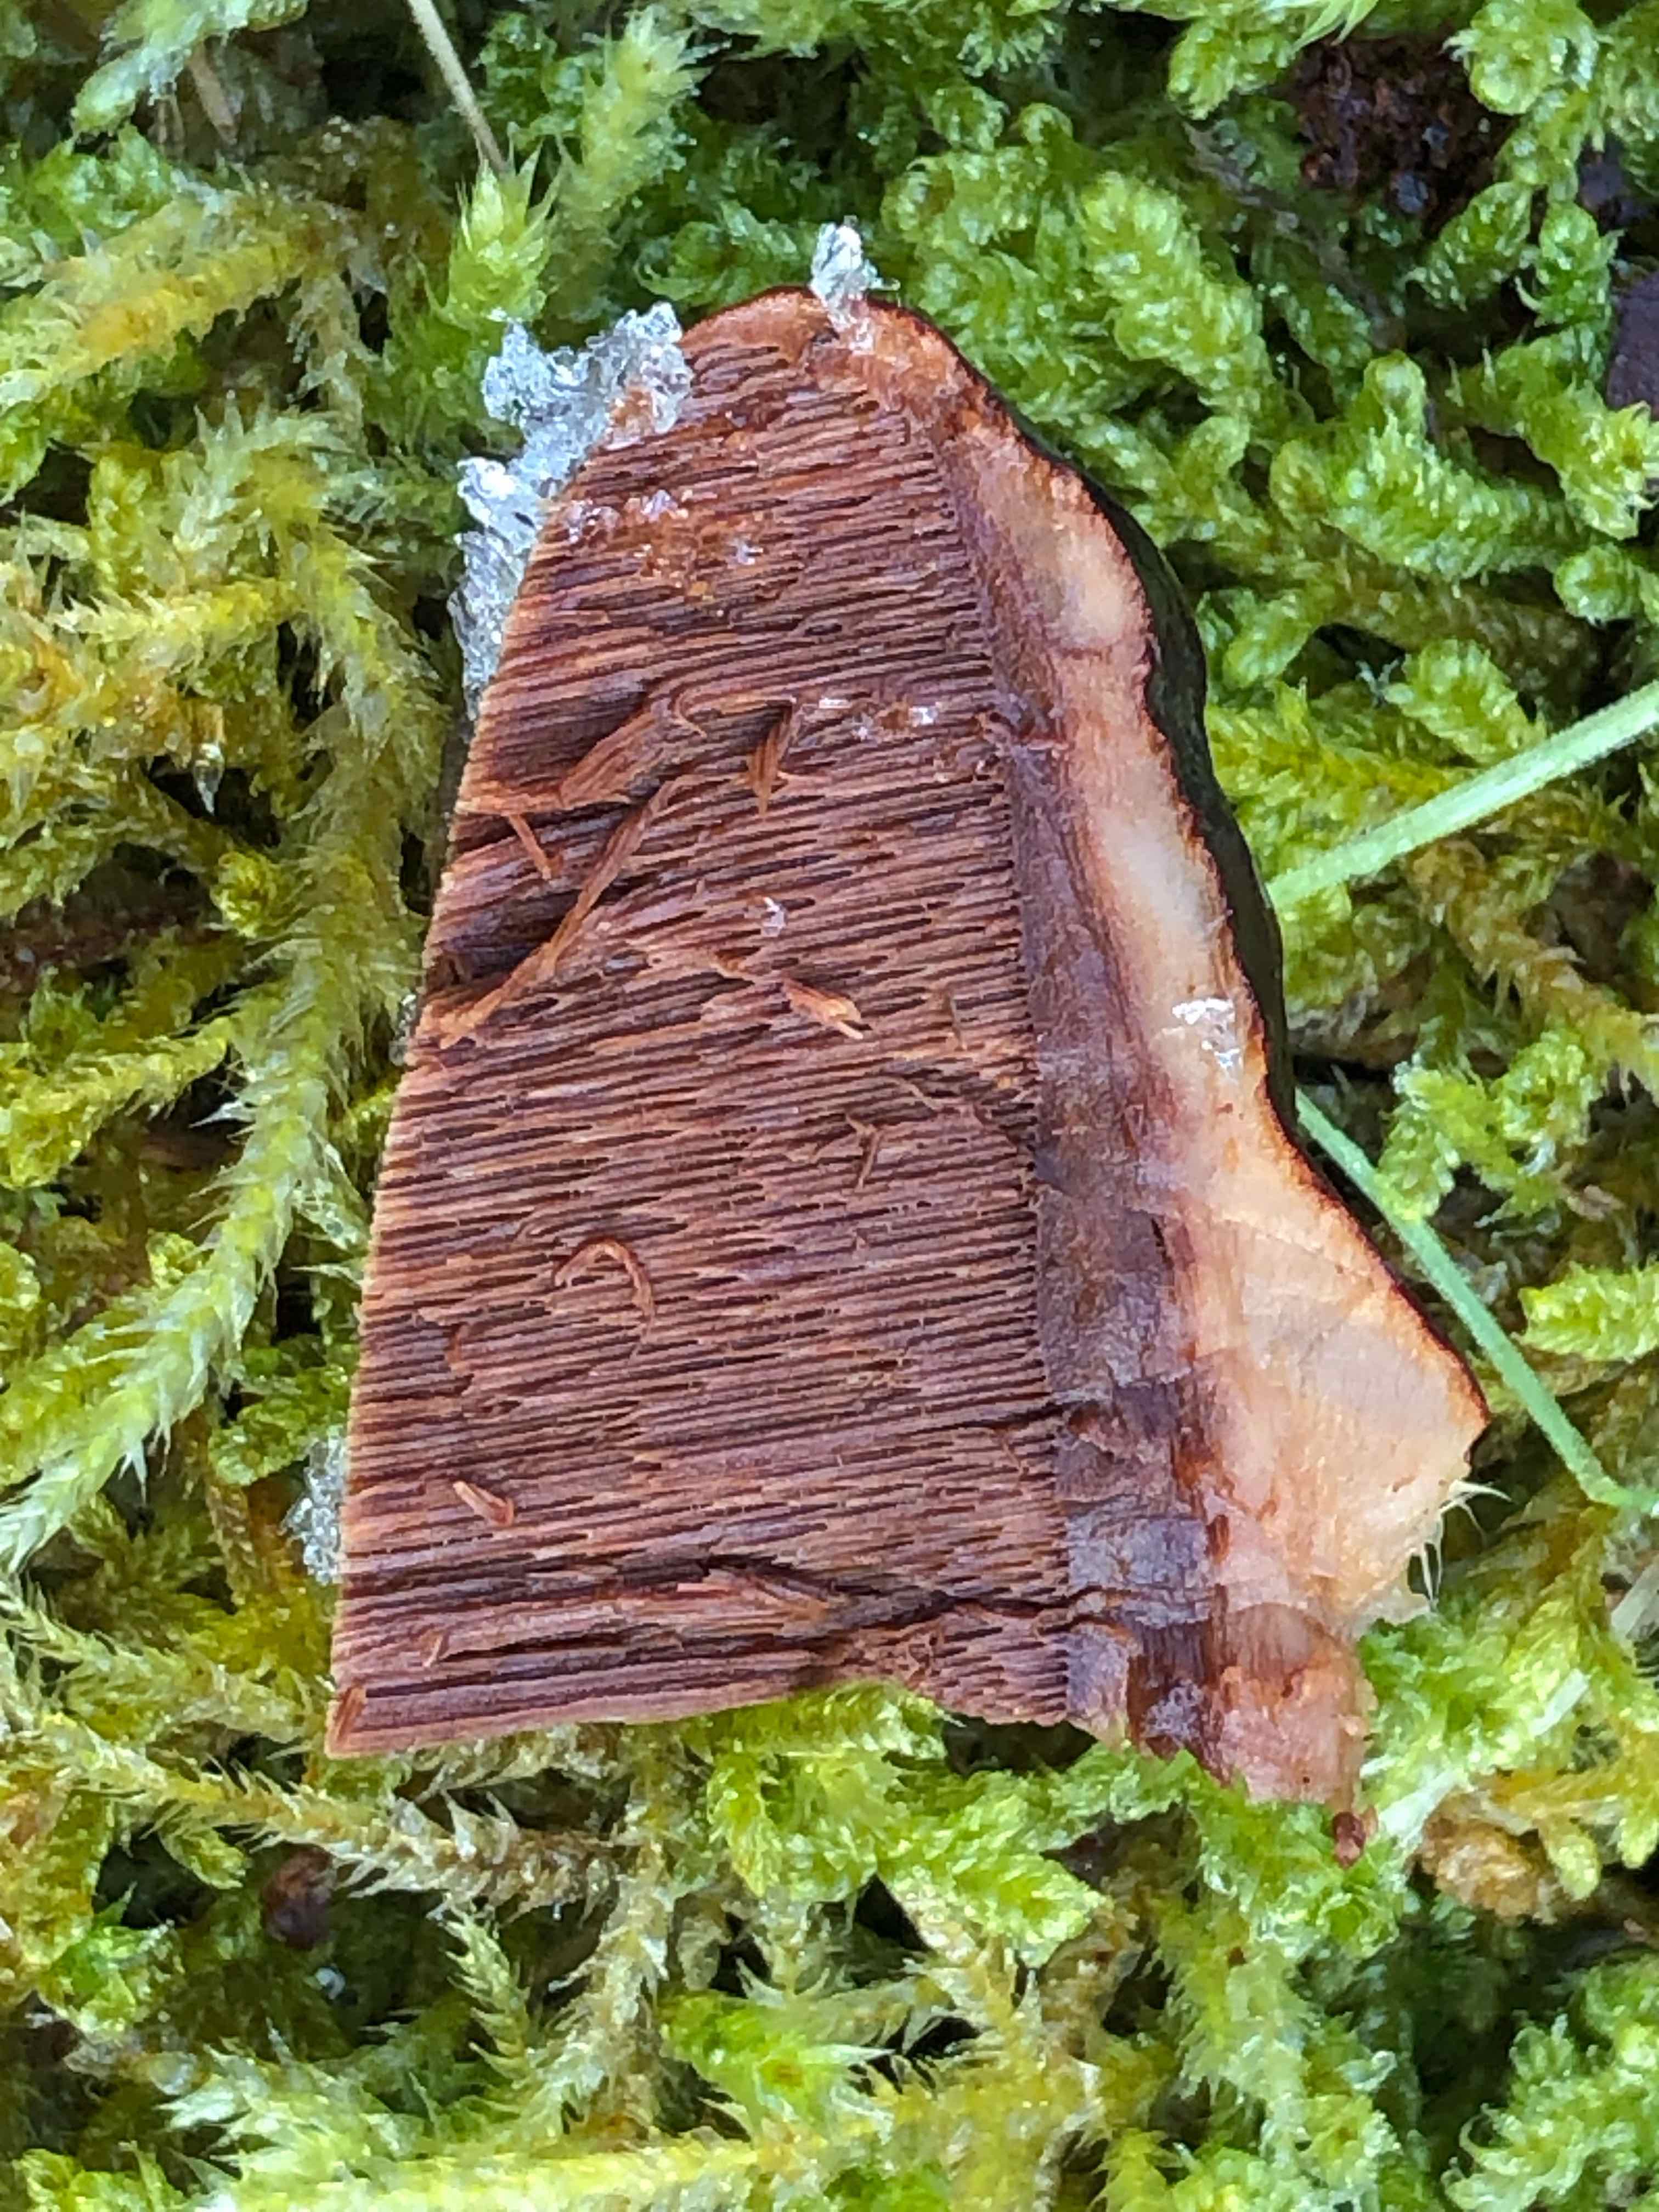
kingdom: Fungi
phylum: Basidiomycota
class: Agaricomycetes
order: Polyporales
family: Polyporaceae
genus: Ganoderma
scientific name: Ganoderma lucidum
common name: skinnende lakporesvamp
